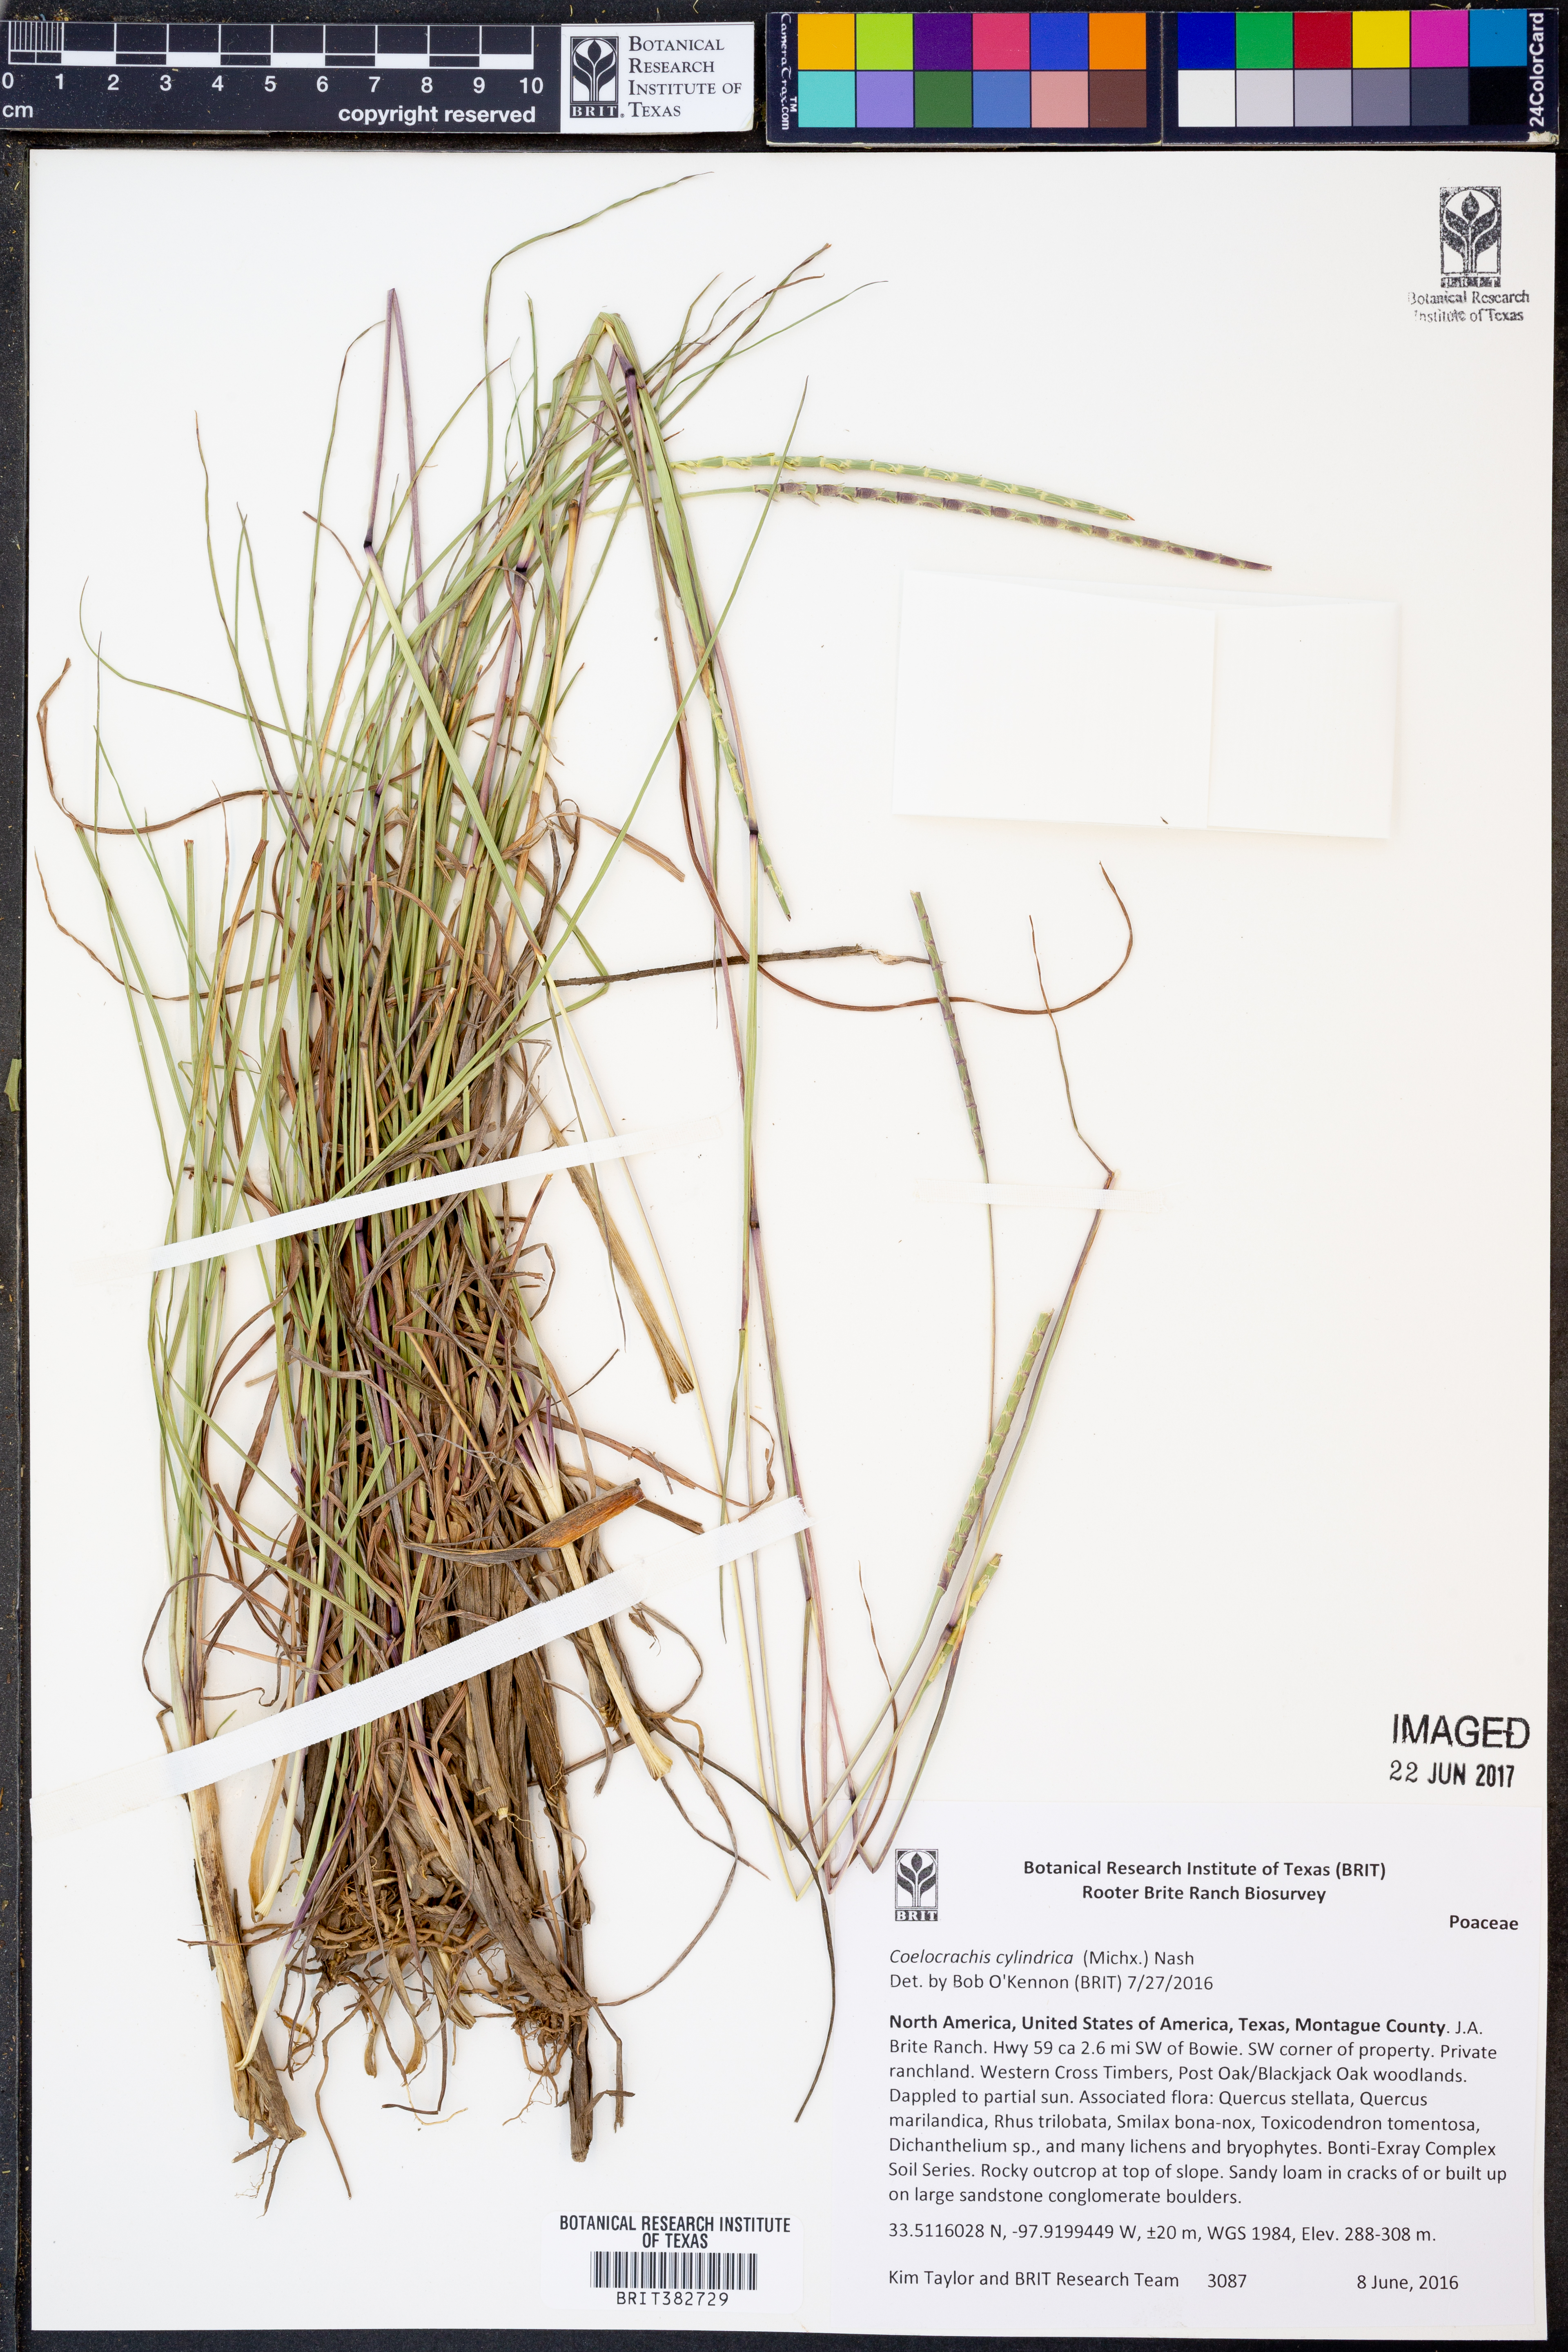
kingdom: Plantae
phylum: Tracheophyta
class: Liliopsida
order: Poales
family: Poaceae
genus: Rottboellia
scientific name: Rottboellia campestris
